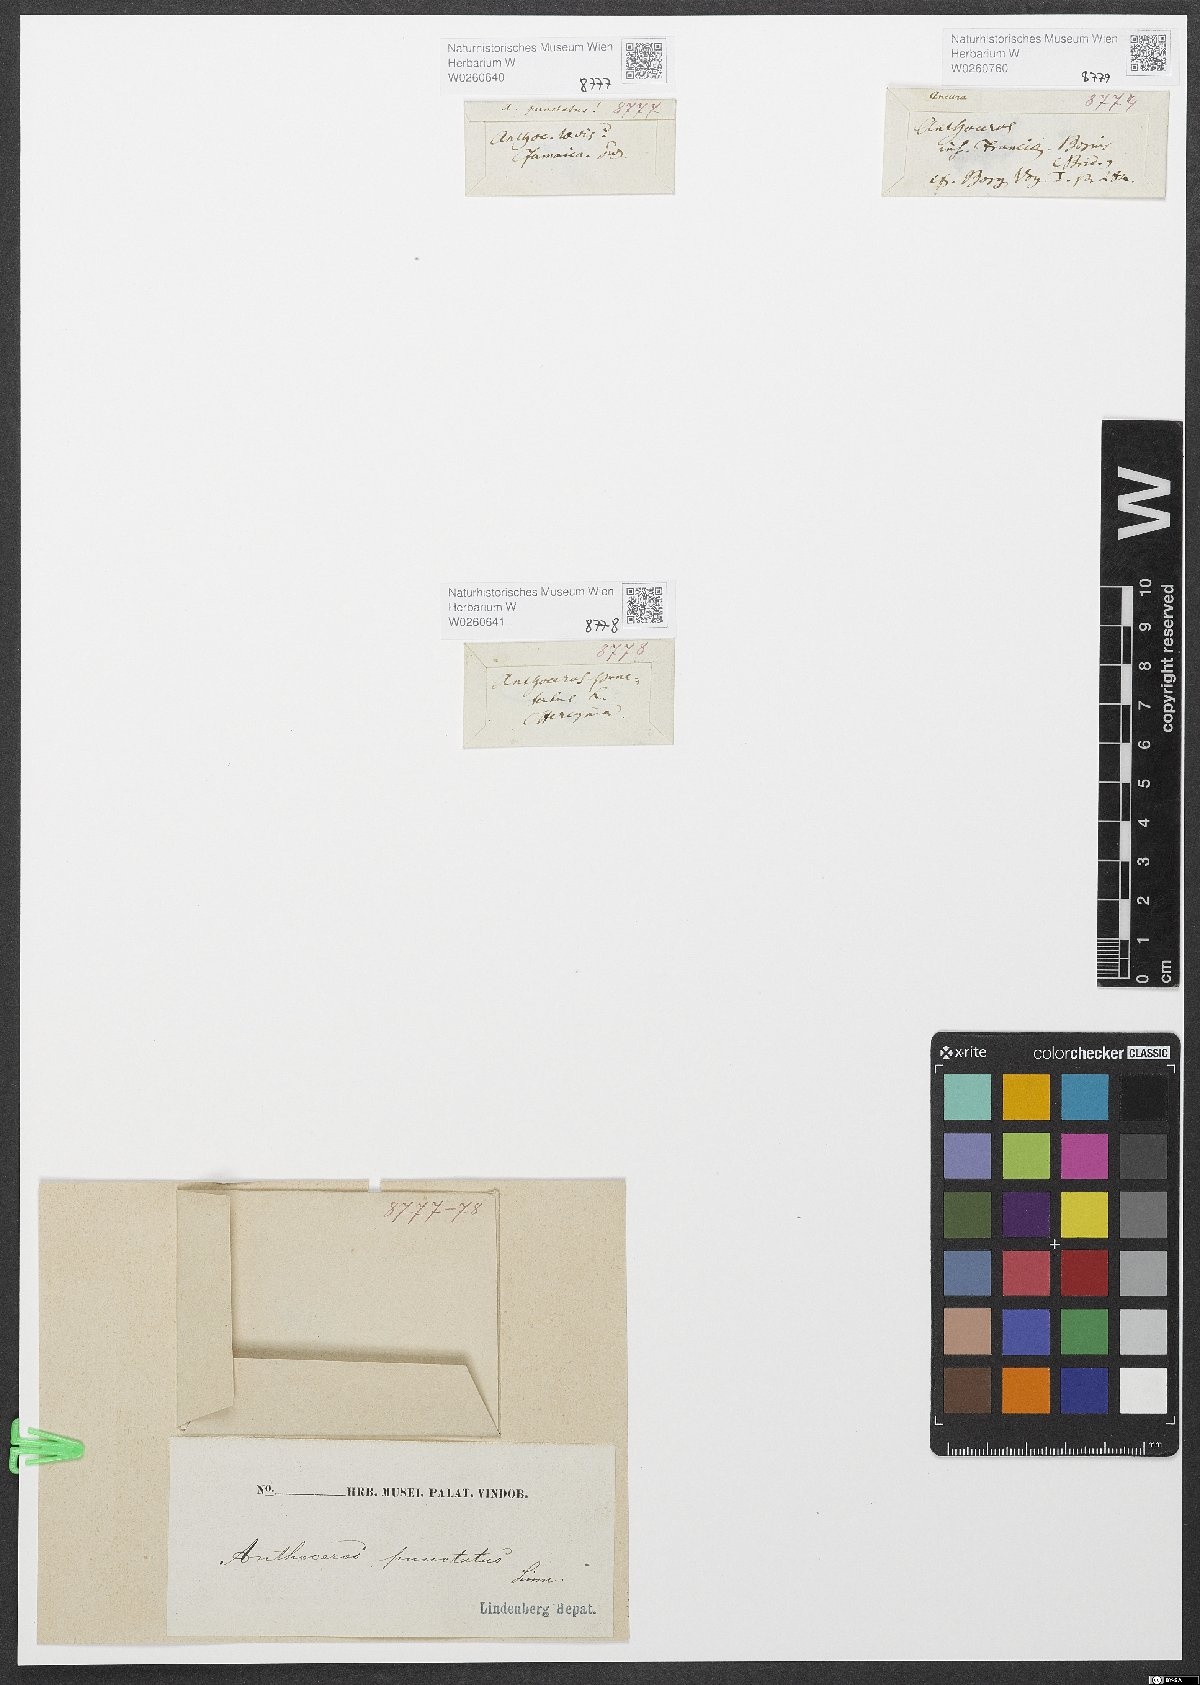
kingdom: Plantae
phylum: Anthocerotophyta
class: Anthocerotopsida
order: Anthocerotales
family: Anthocerotaceae
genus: Anthoceros
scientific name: Anthoceros punctatus
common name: Dotted hornwort
